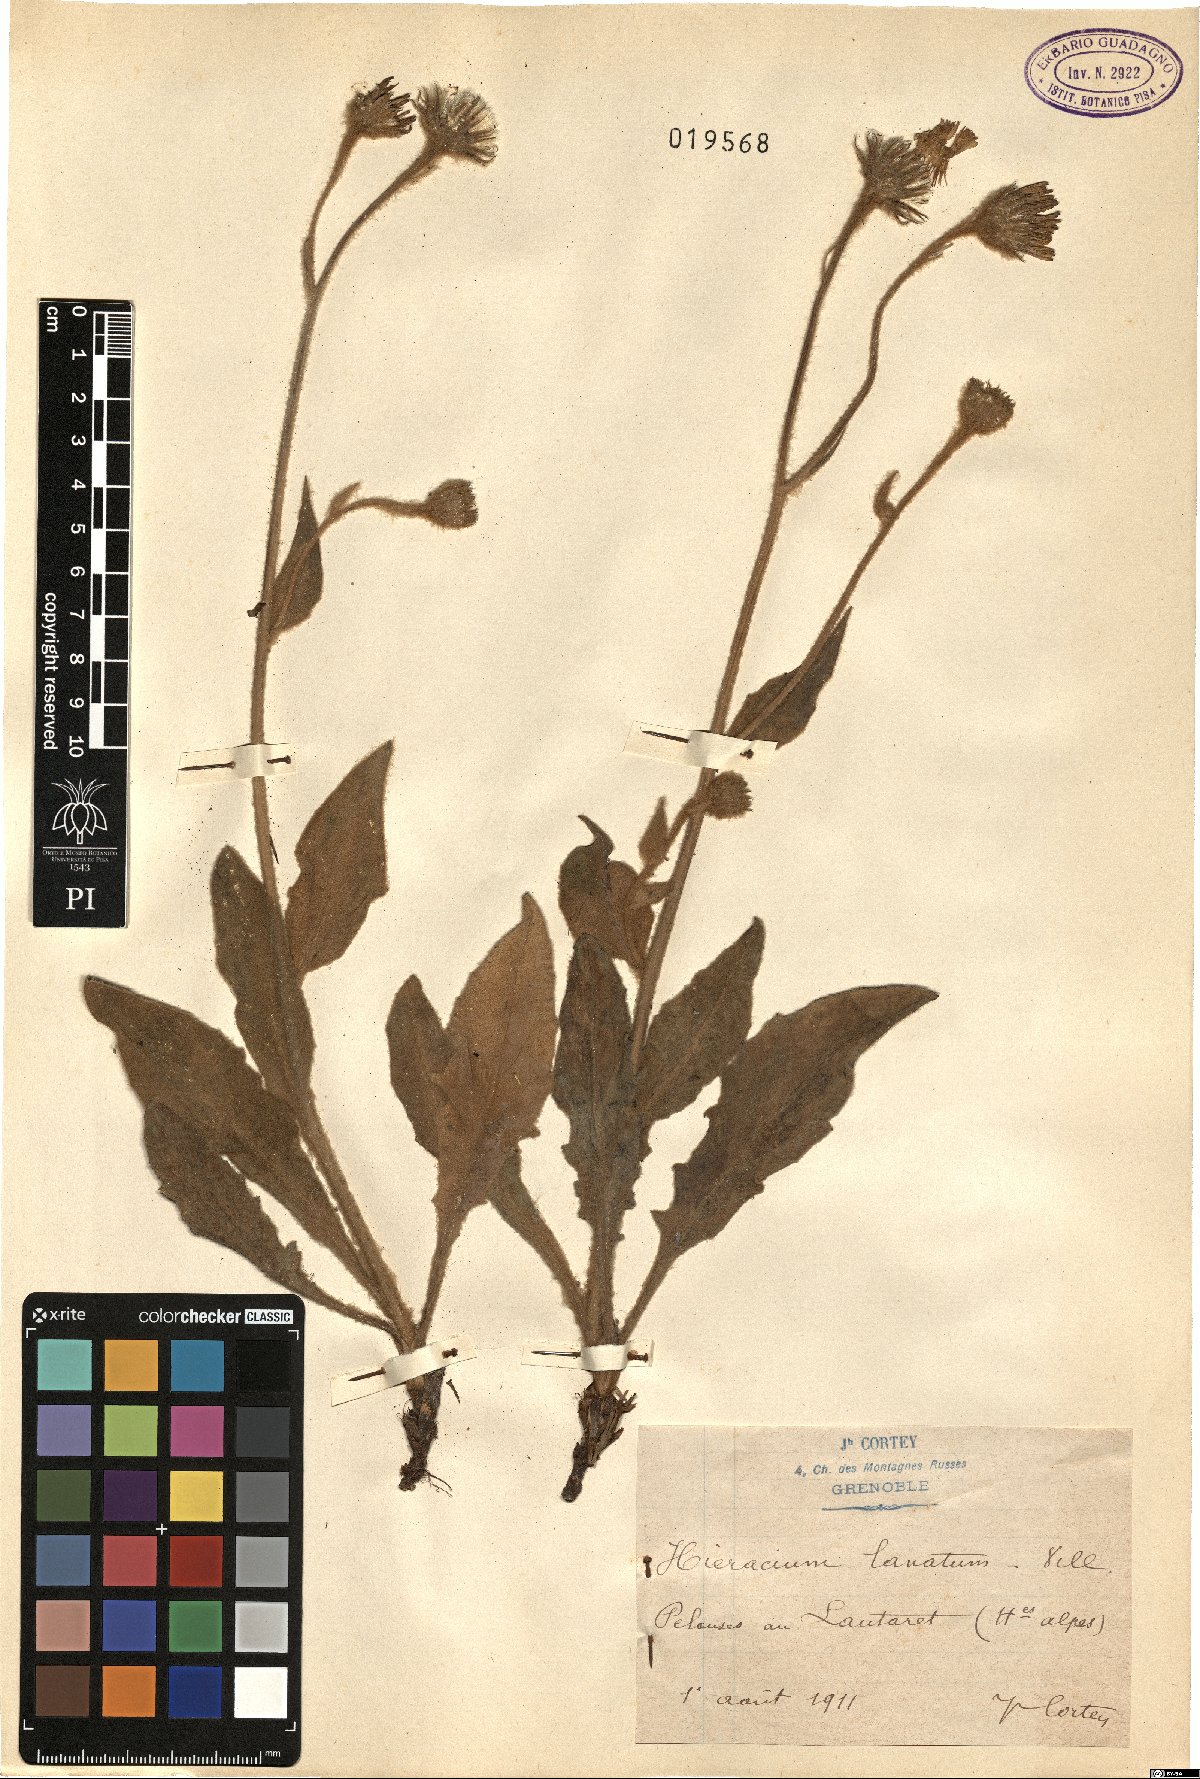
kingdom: Plantae
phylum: Tracheophyta
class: Magnoliopsida
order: Asterales
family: Asteraceae
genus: Hieracium
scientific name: Hieracium tomentosum
